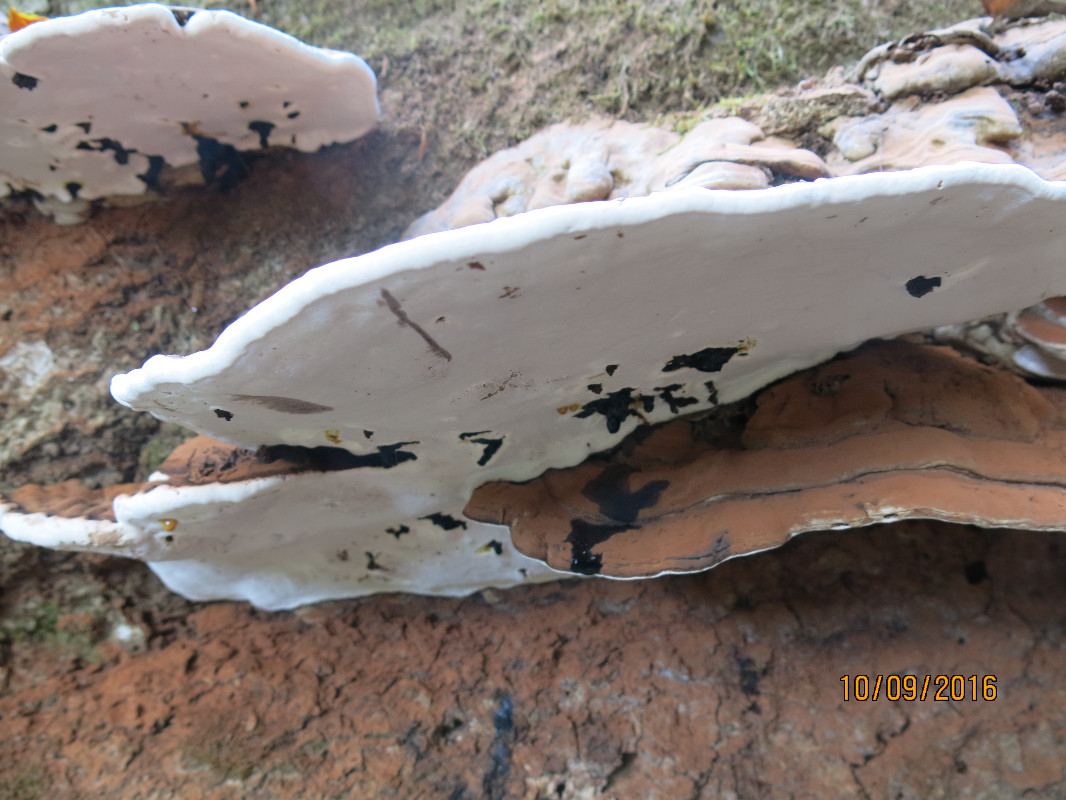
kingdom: Fungi
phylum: Basidiomycota
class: Agaricomycetes
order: Polyporales
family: Polyporaceae
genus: Ganoderma
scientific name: Ganoderma applanatum
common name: flad lakporesvamp
